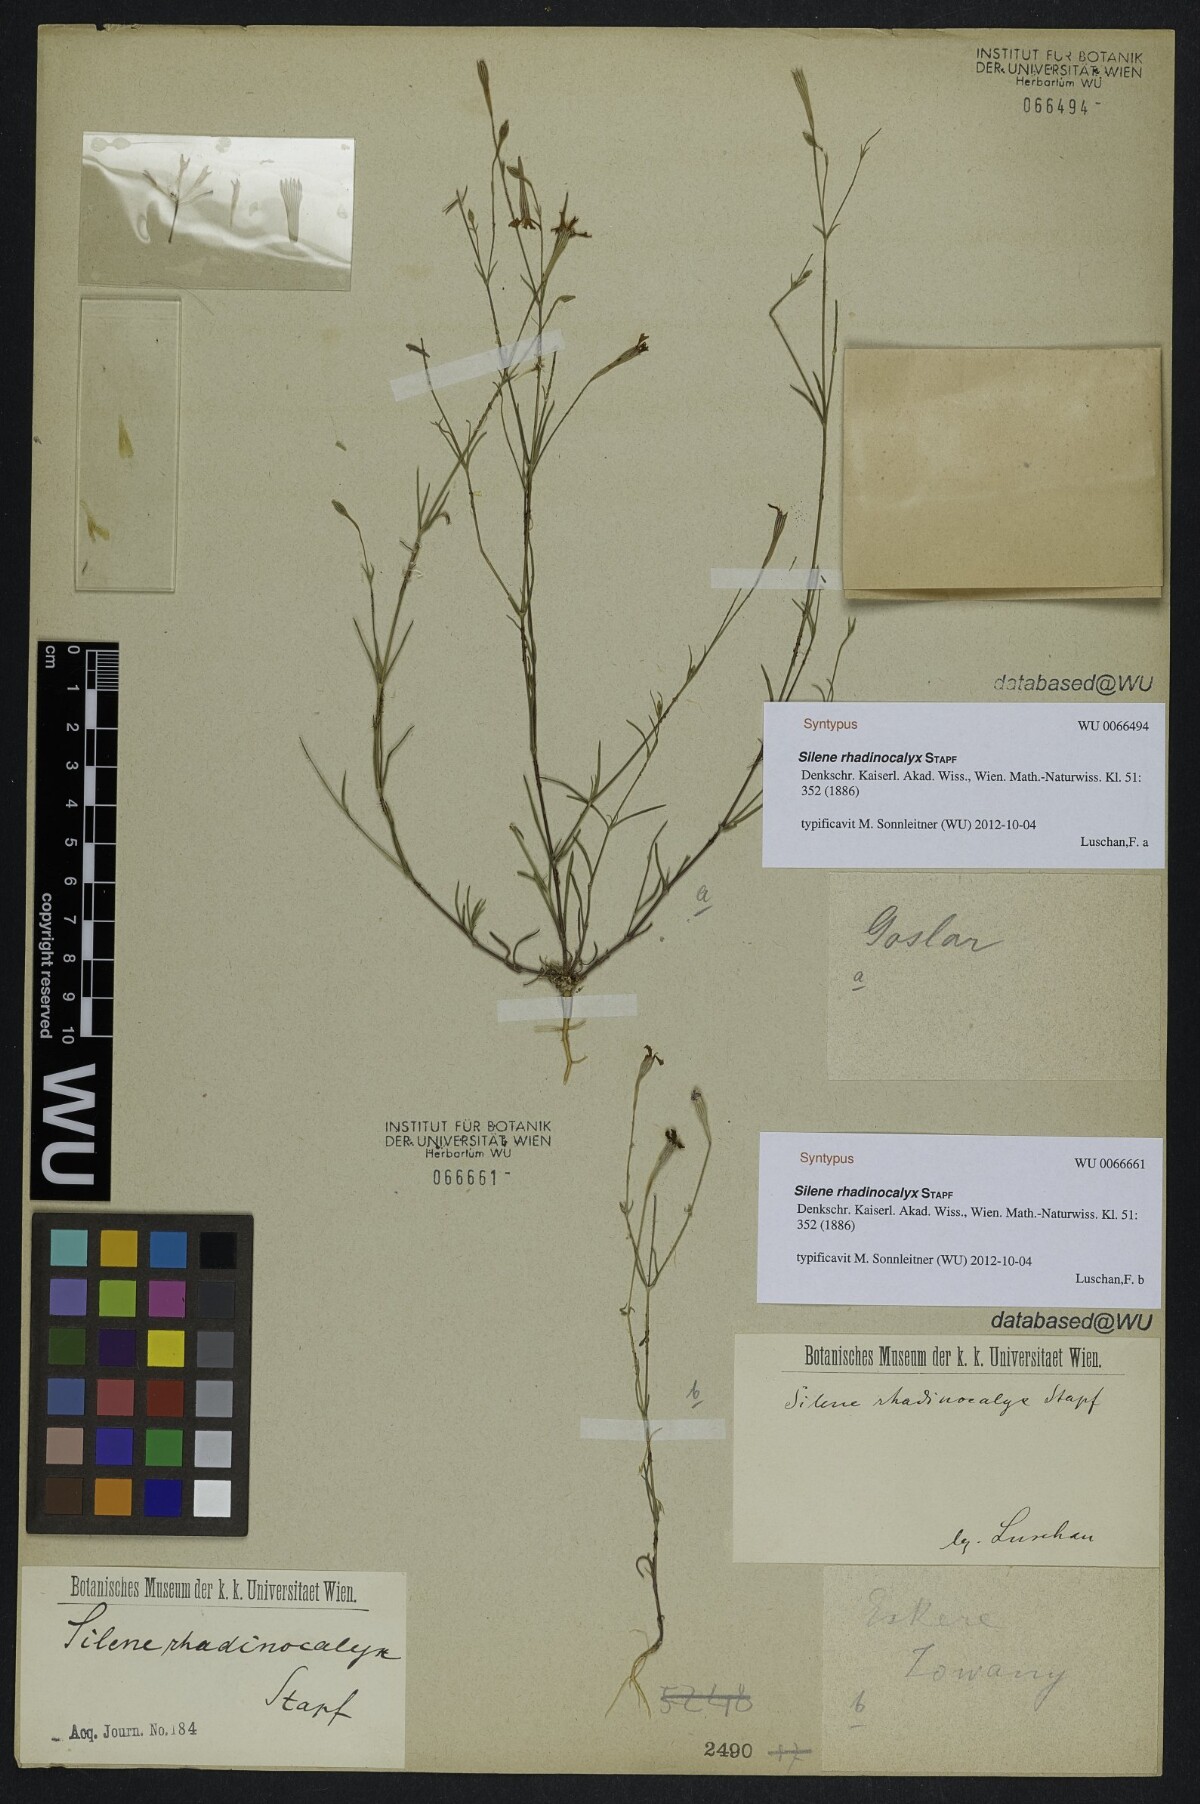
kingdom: Plantae
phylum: Tracheophyta
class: Magnoliopsida
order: Caryophyllales
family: Caryophyllaceae
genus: Silene
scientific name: Silene cariensis
